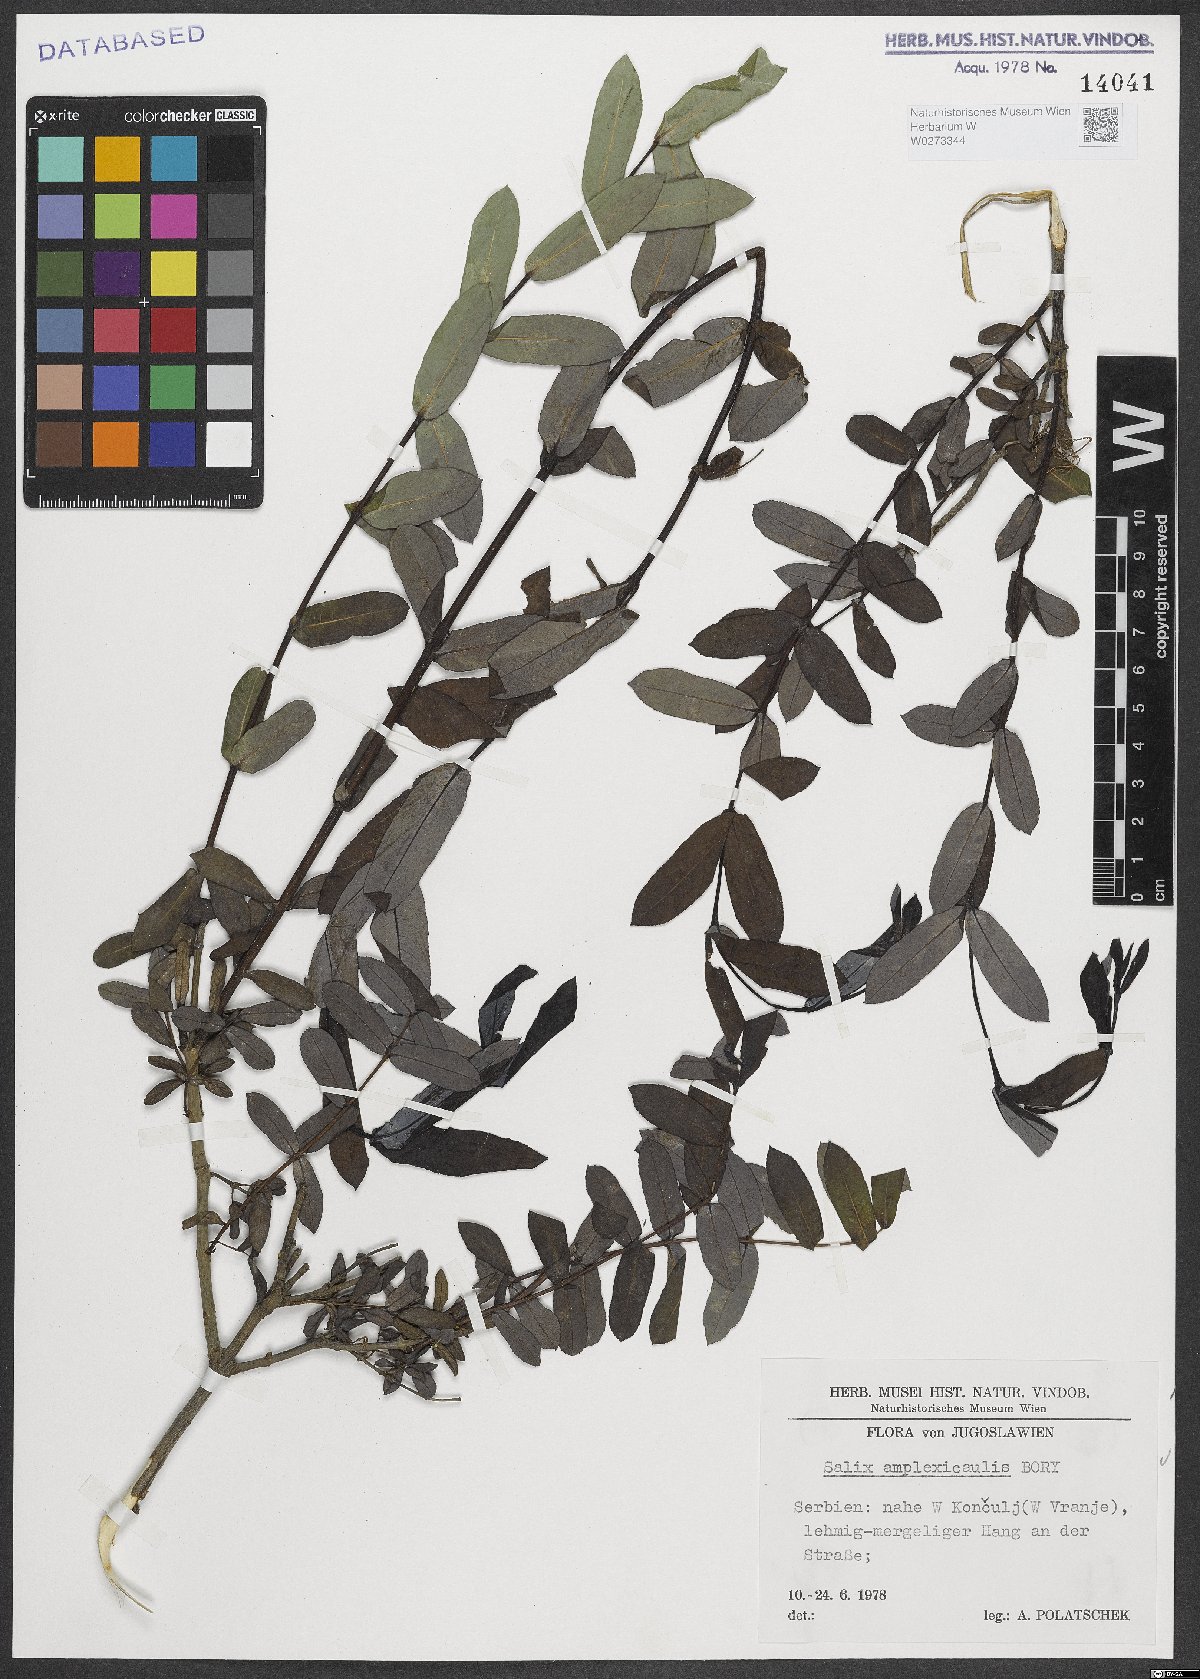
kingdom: Plantae
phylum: Tracheophyta
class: Magnoliopsida
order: Malpighiales
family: Salicaceae
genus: Salix
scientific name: Salix amplexicaulis
